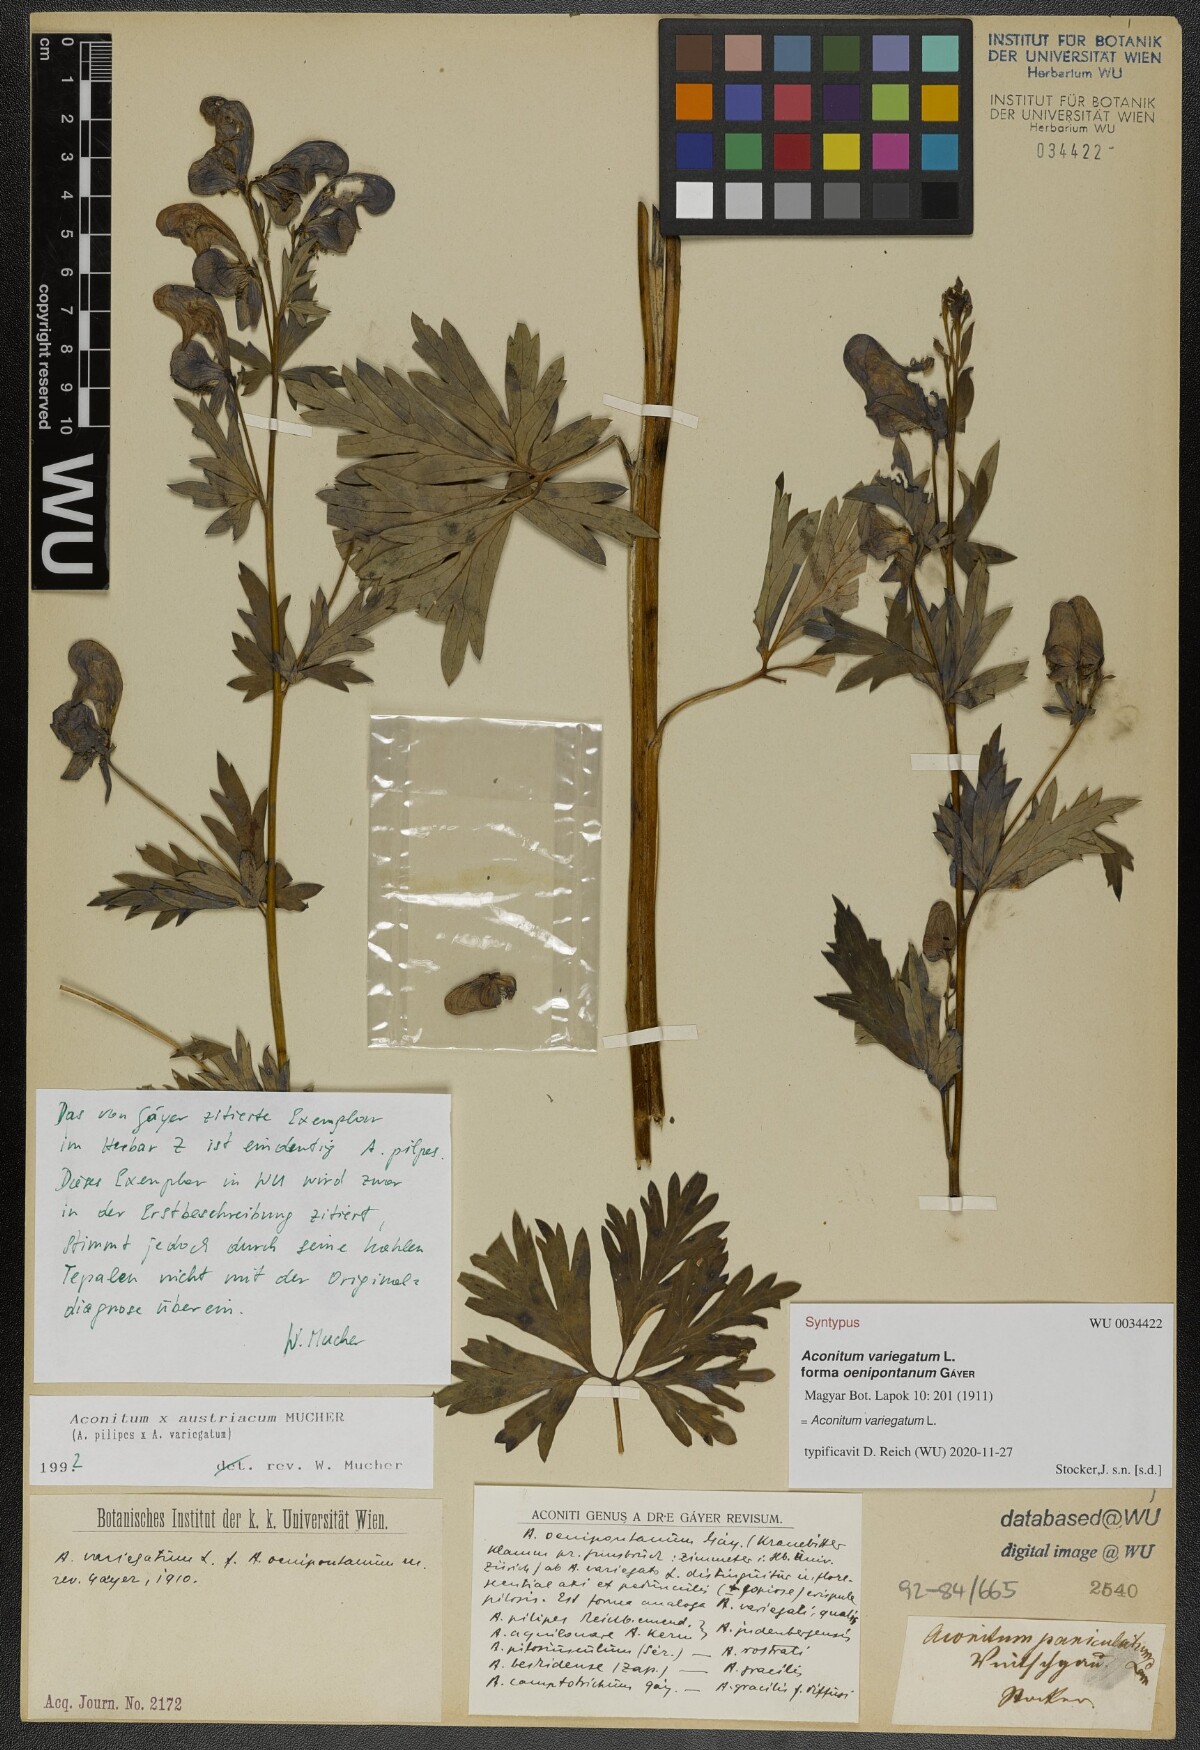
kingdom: Plantae
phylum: Tracheophyta
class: Magnoliopsida
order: Ranunculales
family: Ranunculaceae
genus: Aconitum
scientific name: Aconitum pilipes
